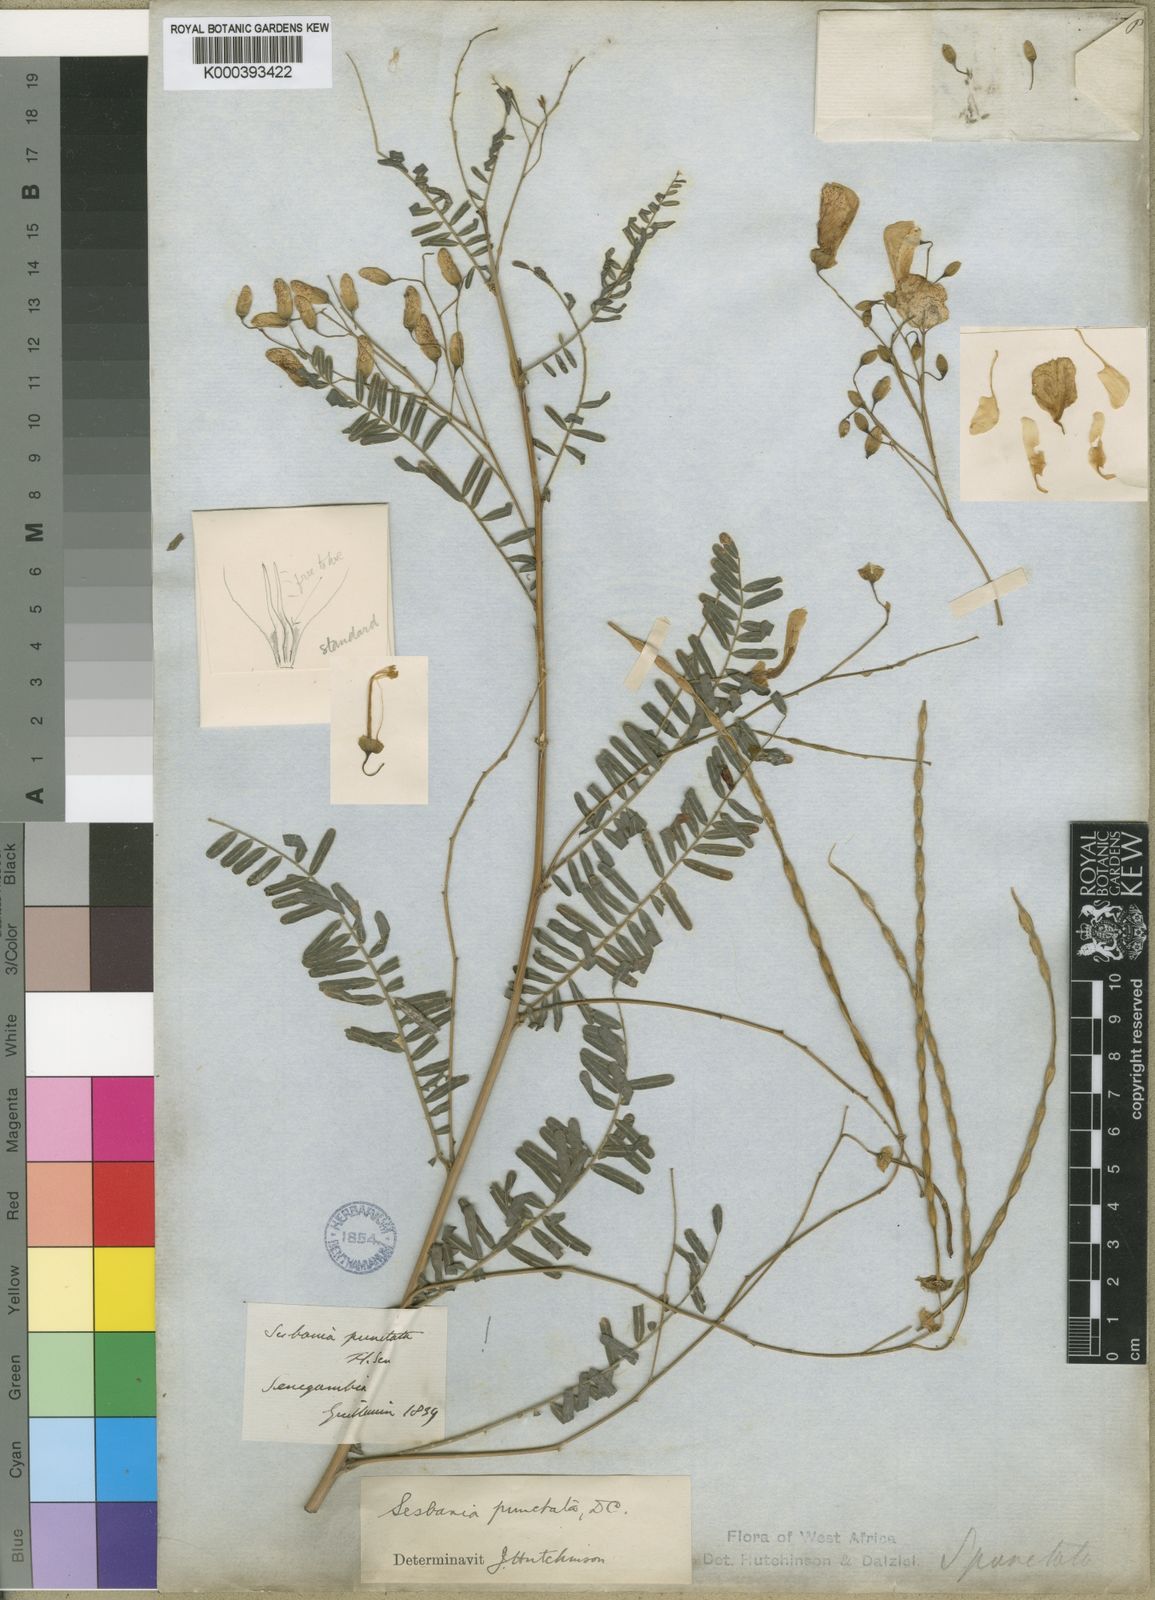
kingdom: Plantae
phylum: Tracheophyta
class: Magnoliopsida
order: Fabales
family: Fabaceae
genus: Sesbania
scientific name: Sesbania sesban
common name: Egyptian sesban
